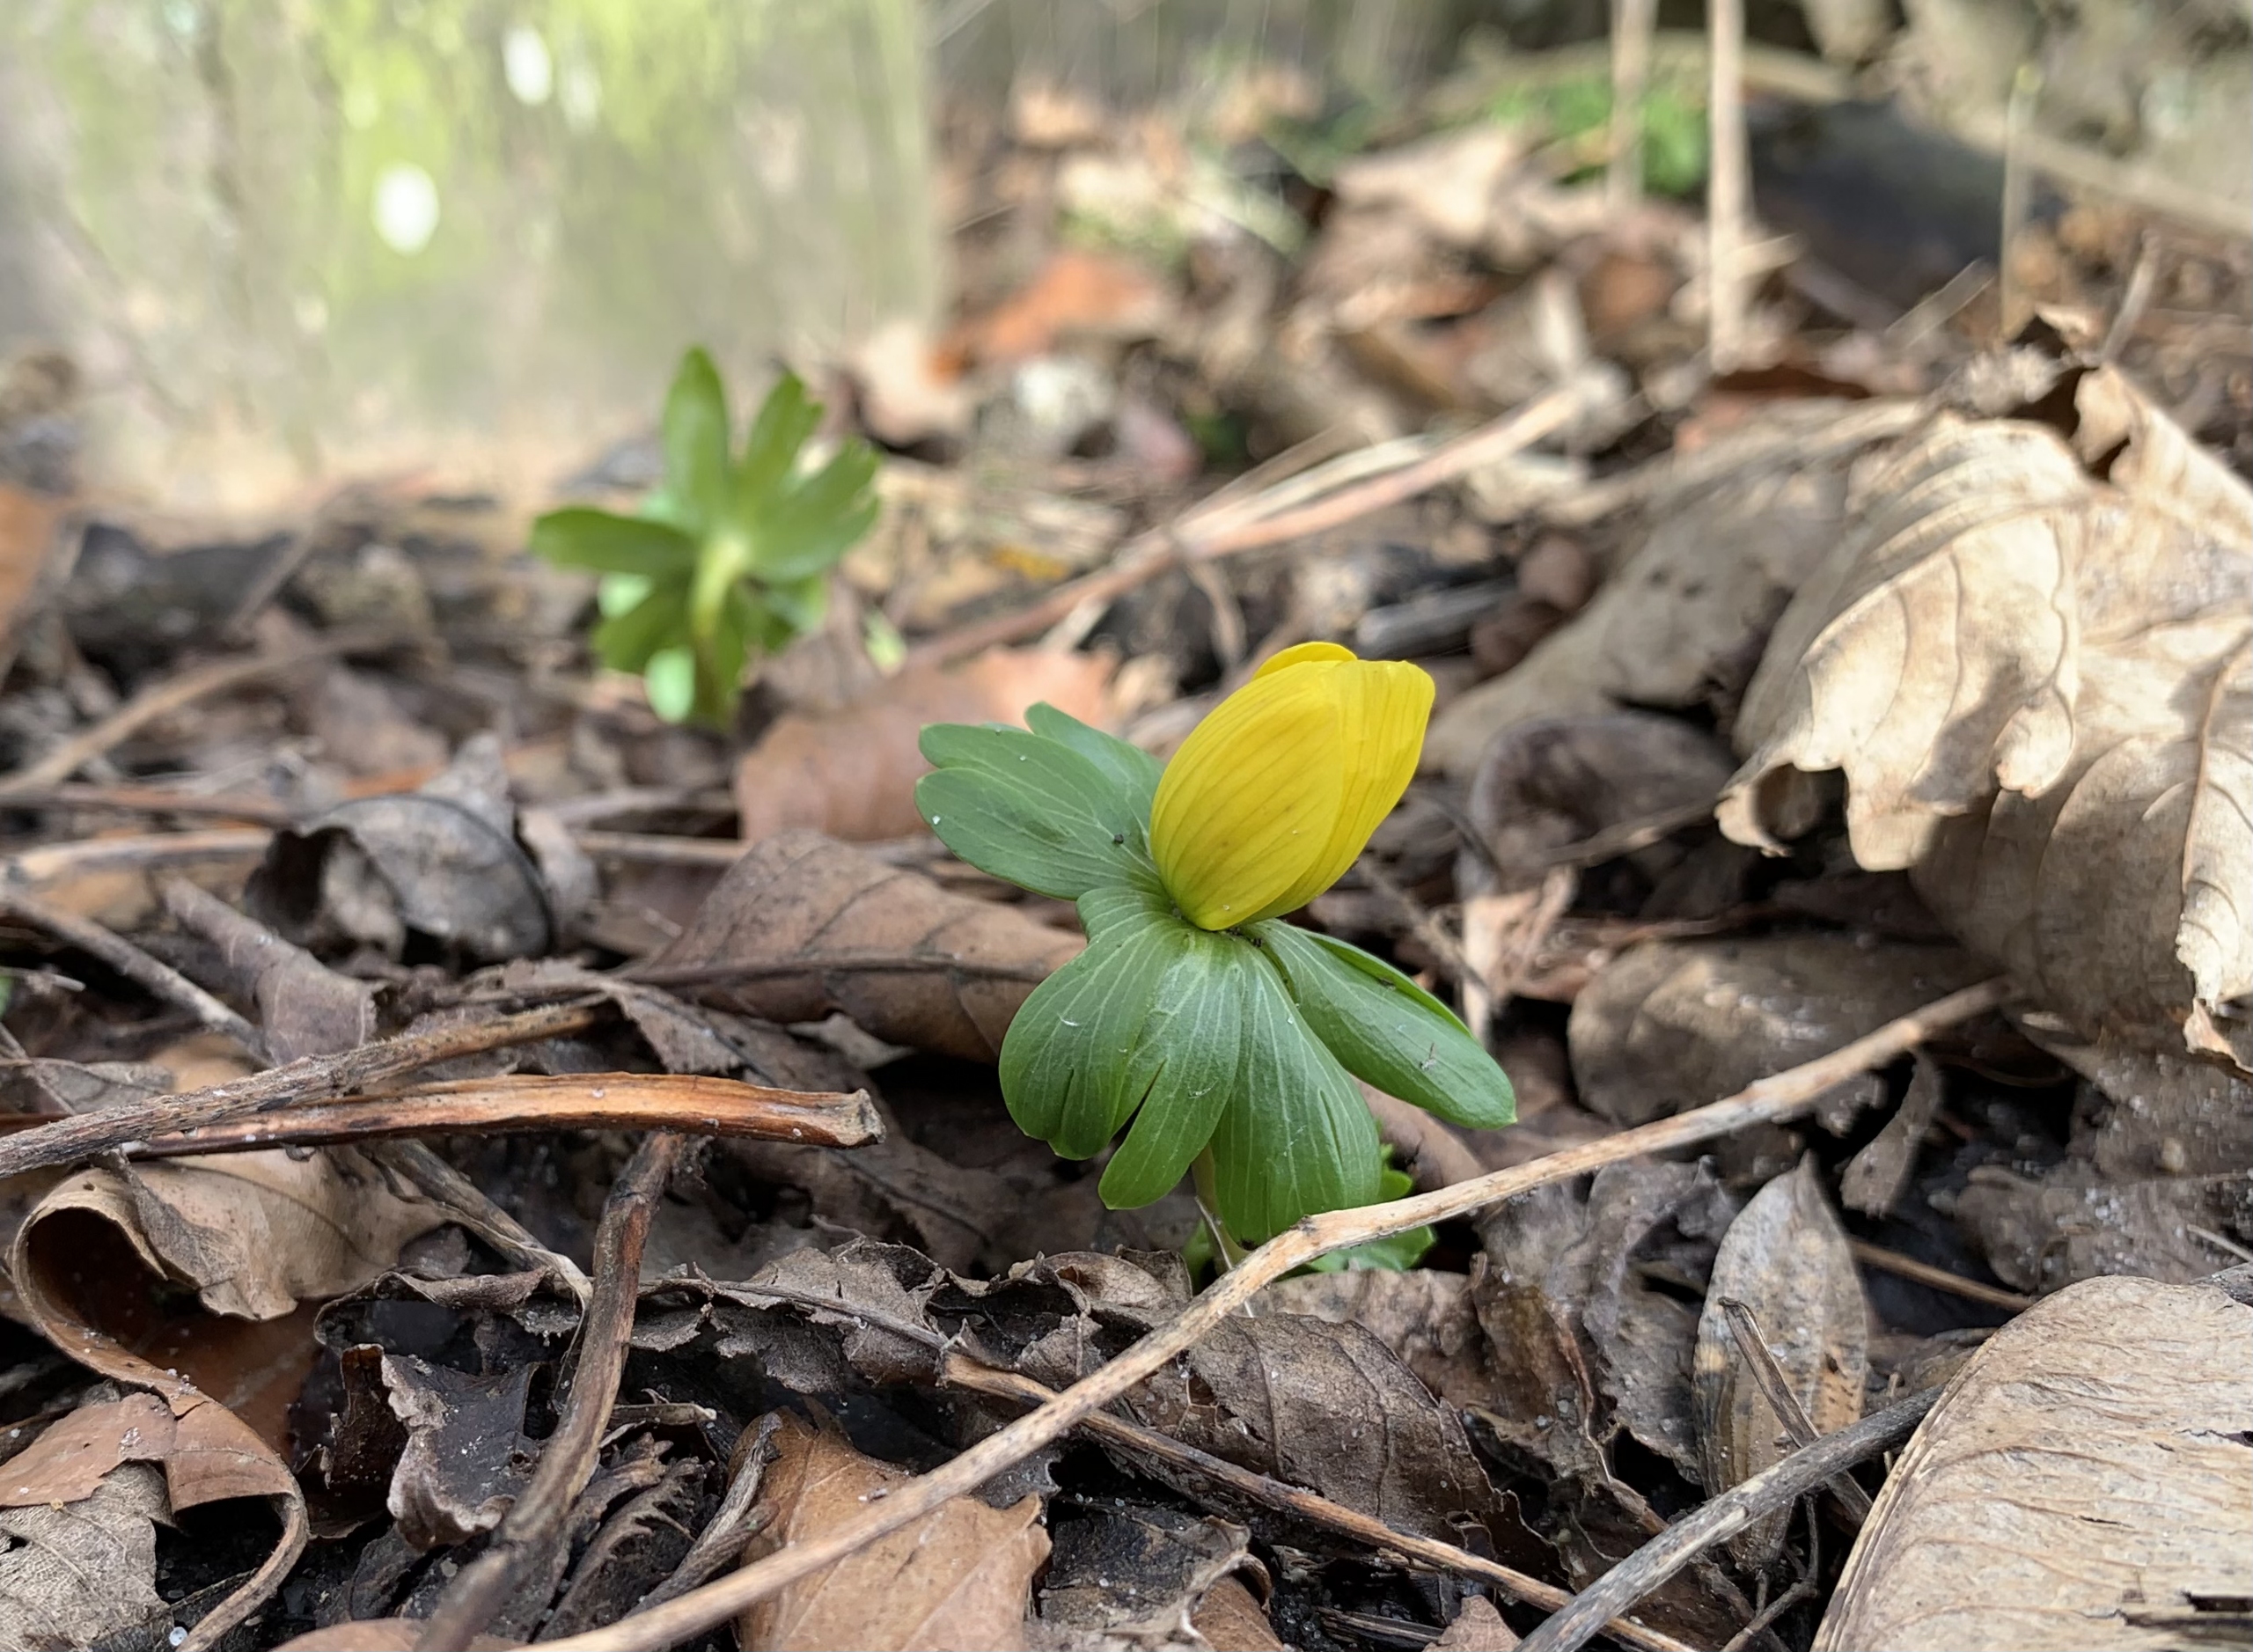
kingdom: Plantae
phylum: Tracheophyta
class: Magnoliopsida
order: Ranunculales
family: Ranunculaceae
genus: Eranthis
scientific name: Eranthis hyemalis
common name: Erantis
